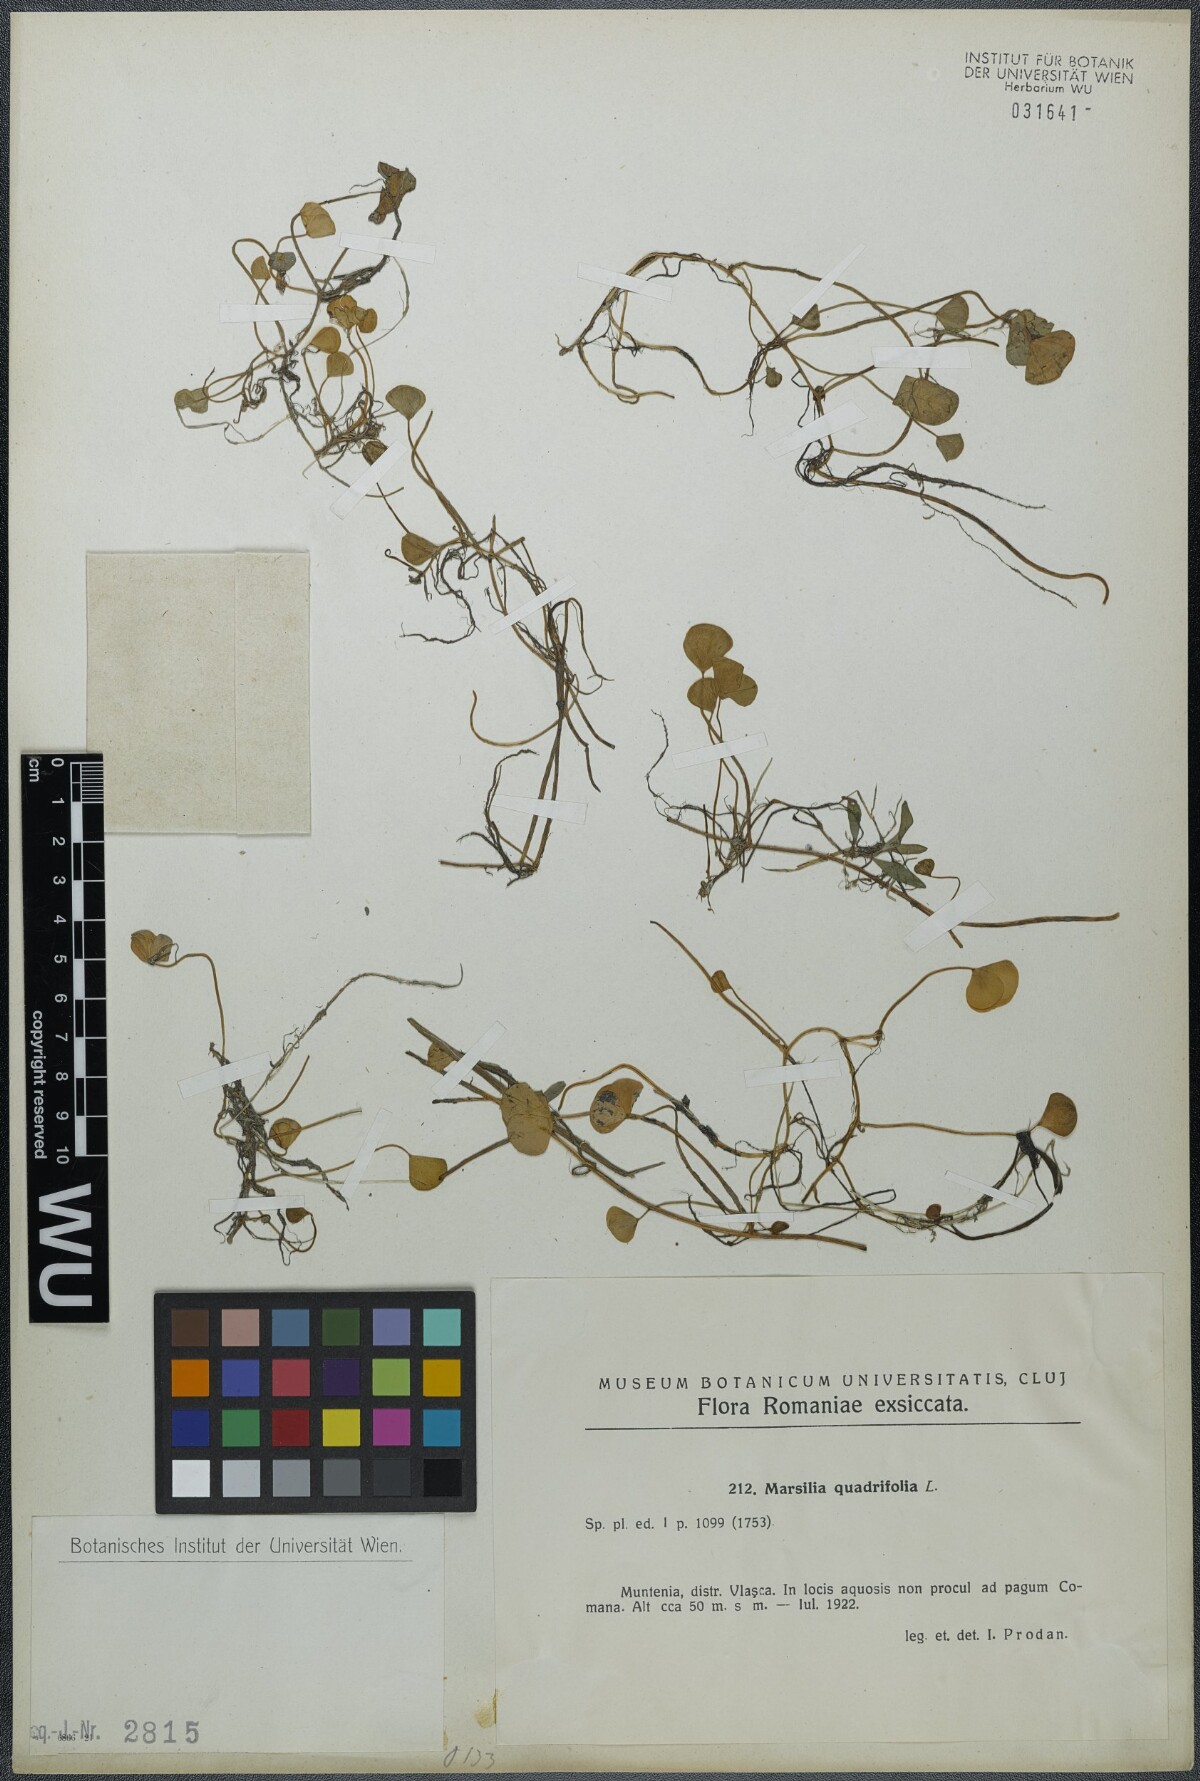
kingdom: Plantae
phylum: Tracheophyta
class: Polypodiopsida
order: Salviniales
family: Marsileaceae
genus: Marsilea
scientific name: Marsilea quadrifolia
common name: Water shamrock
